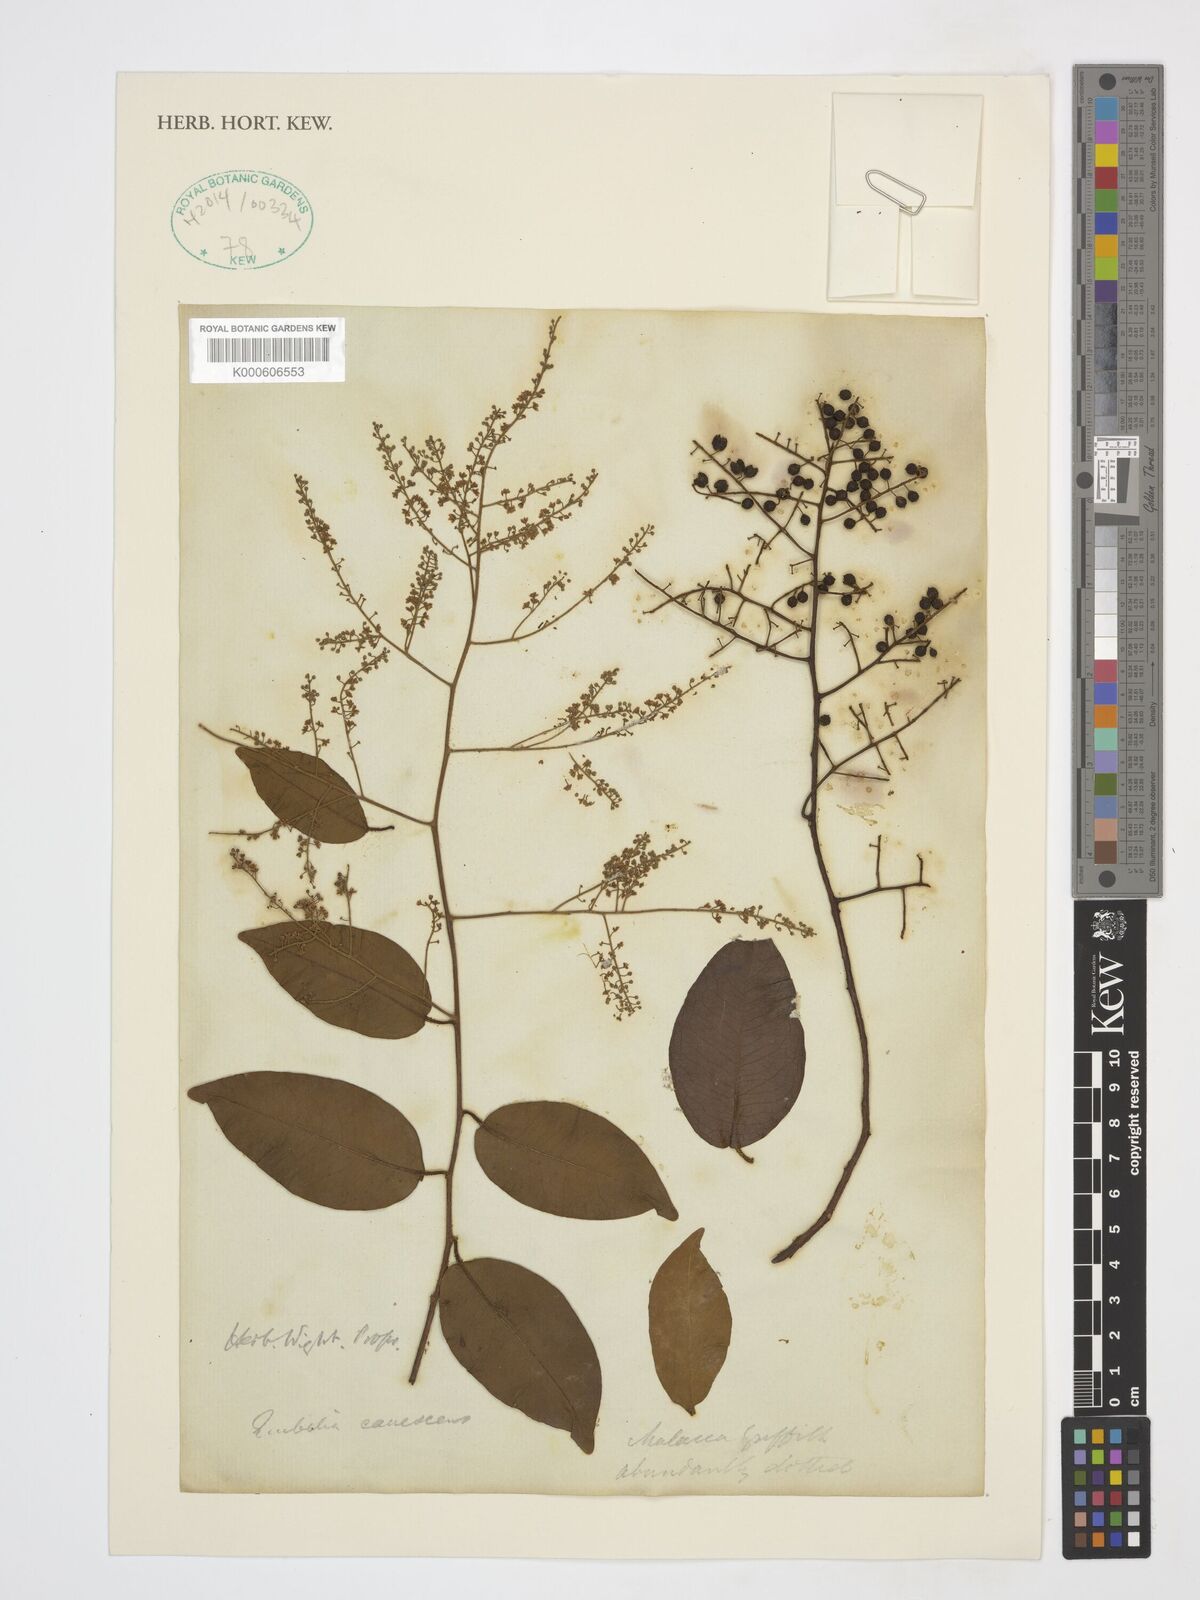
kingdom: Plantae
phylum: Tracheophyta
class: Magnoliopsida
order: Ericales
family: Primulaceae
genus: Embelia
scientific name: Embelia canescens
